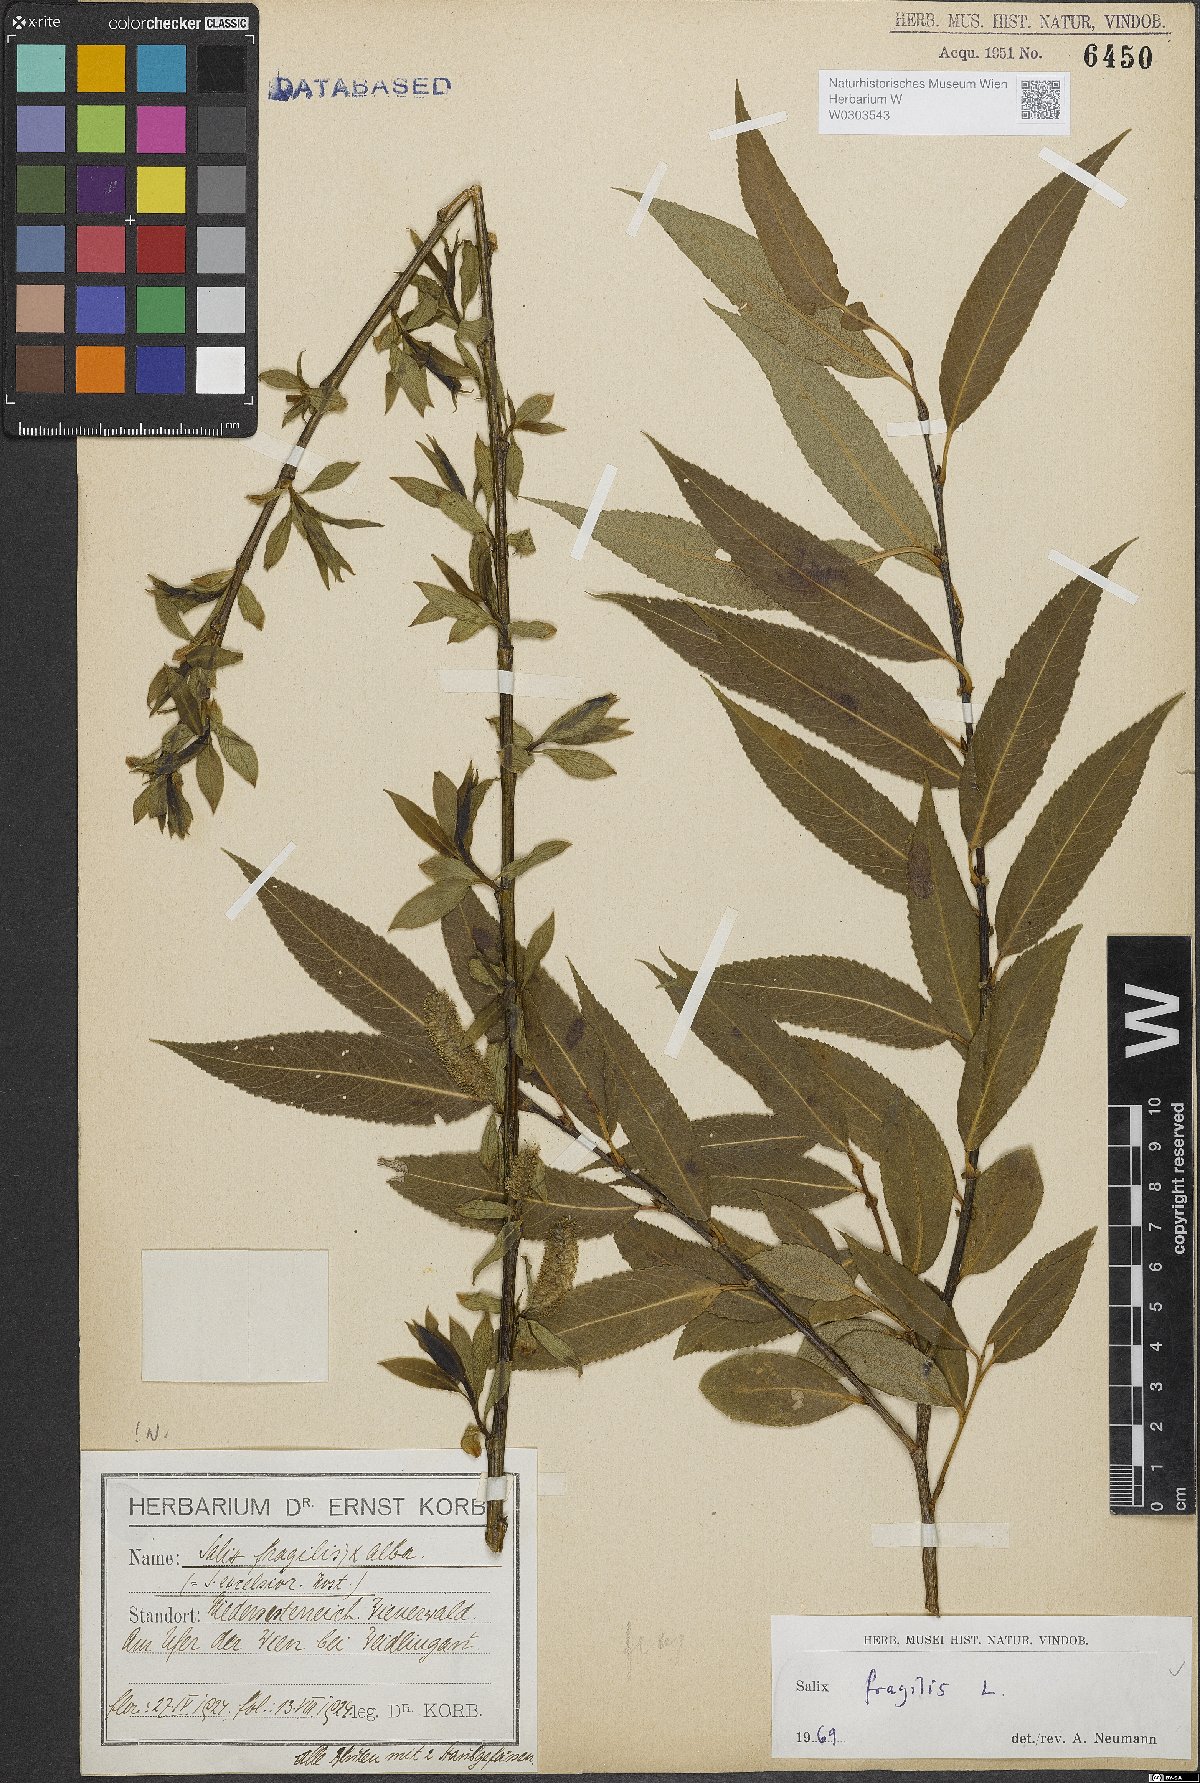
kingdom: Plantae
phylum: Tracheophyta
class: Magnoliopsida
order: Malpighiales
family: Salicaceae
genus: Salix
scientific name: Salix fragilis
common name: Crack willow
